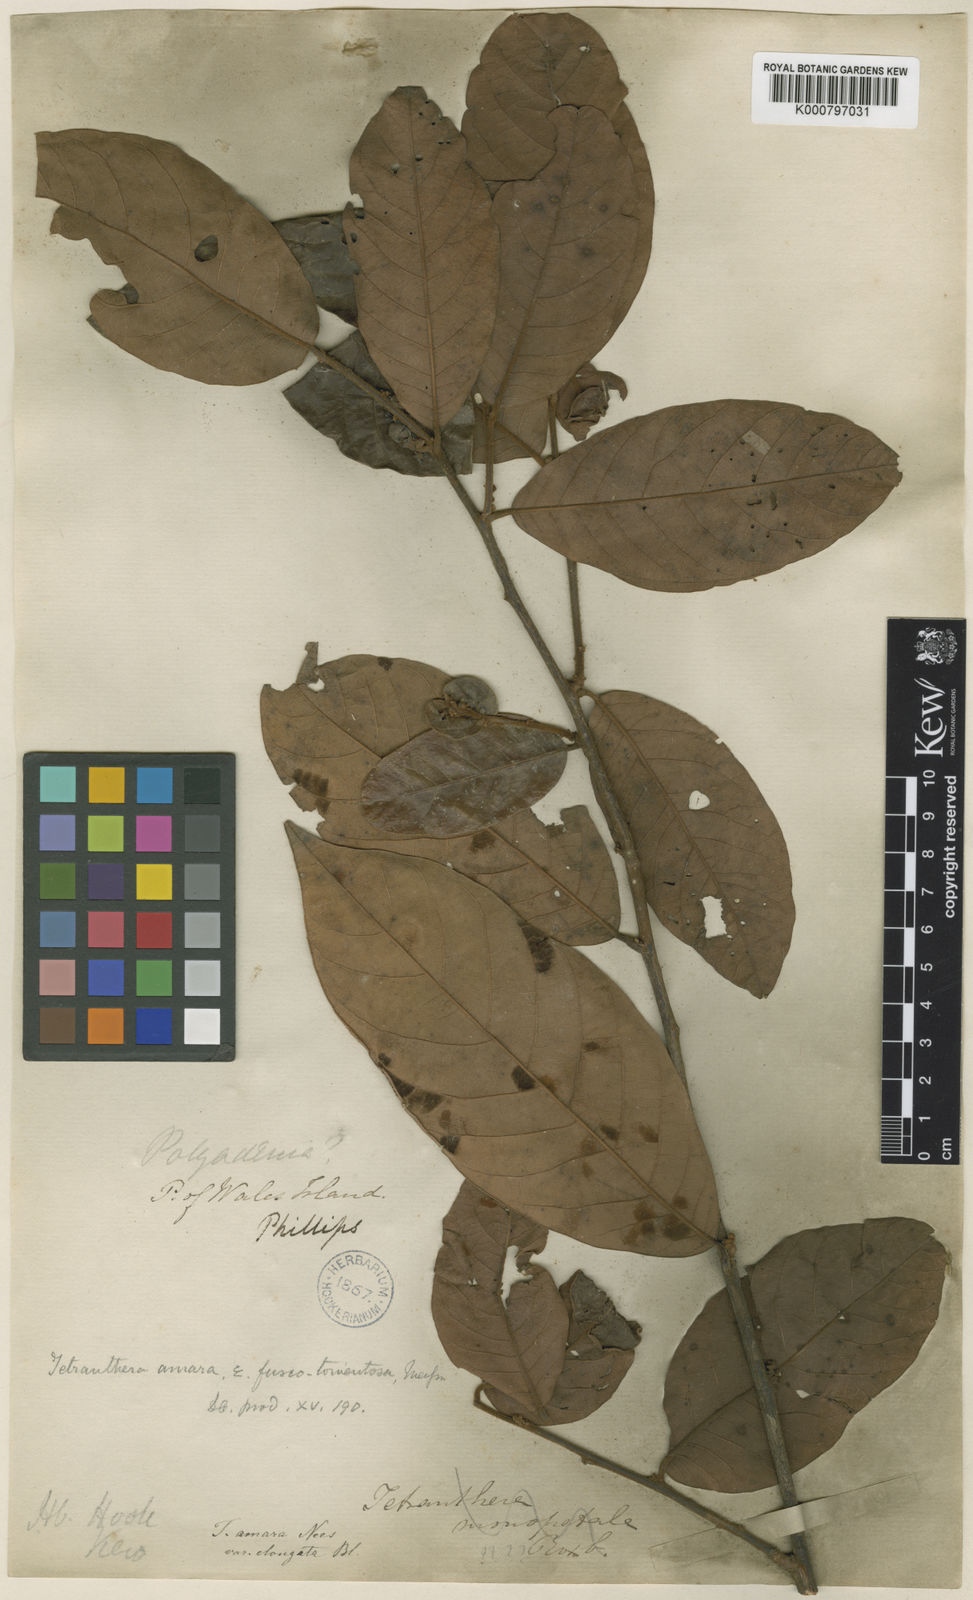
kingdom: Plantae
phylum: Tracheophyta
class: Magnoliopsida
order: Laurales
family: Lauraceae
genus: Litsea
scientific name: Litsea
